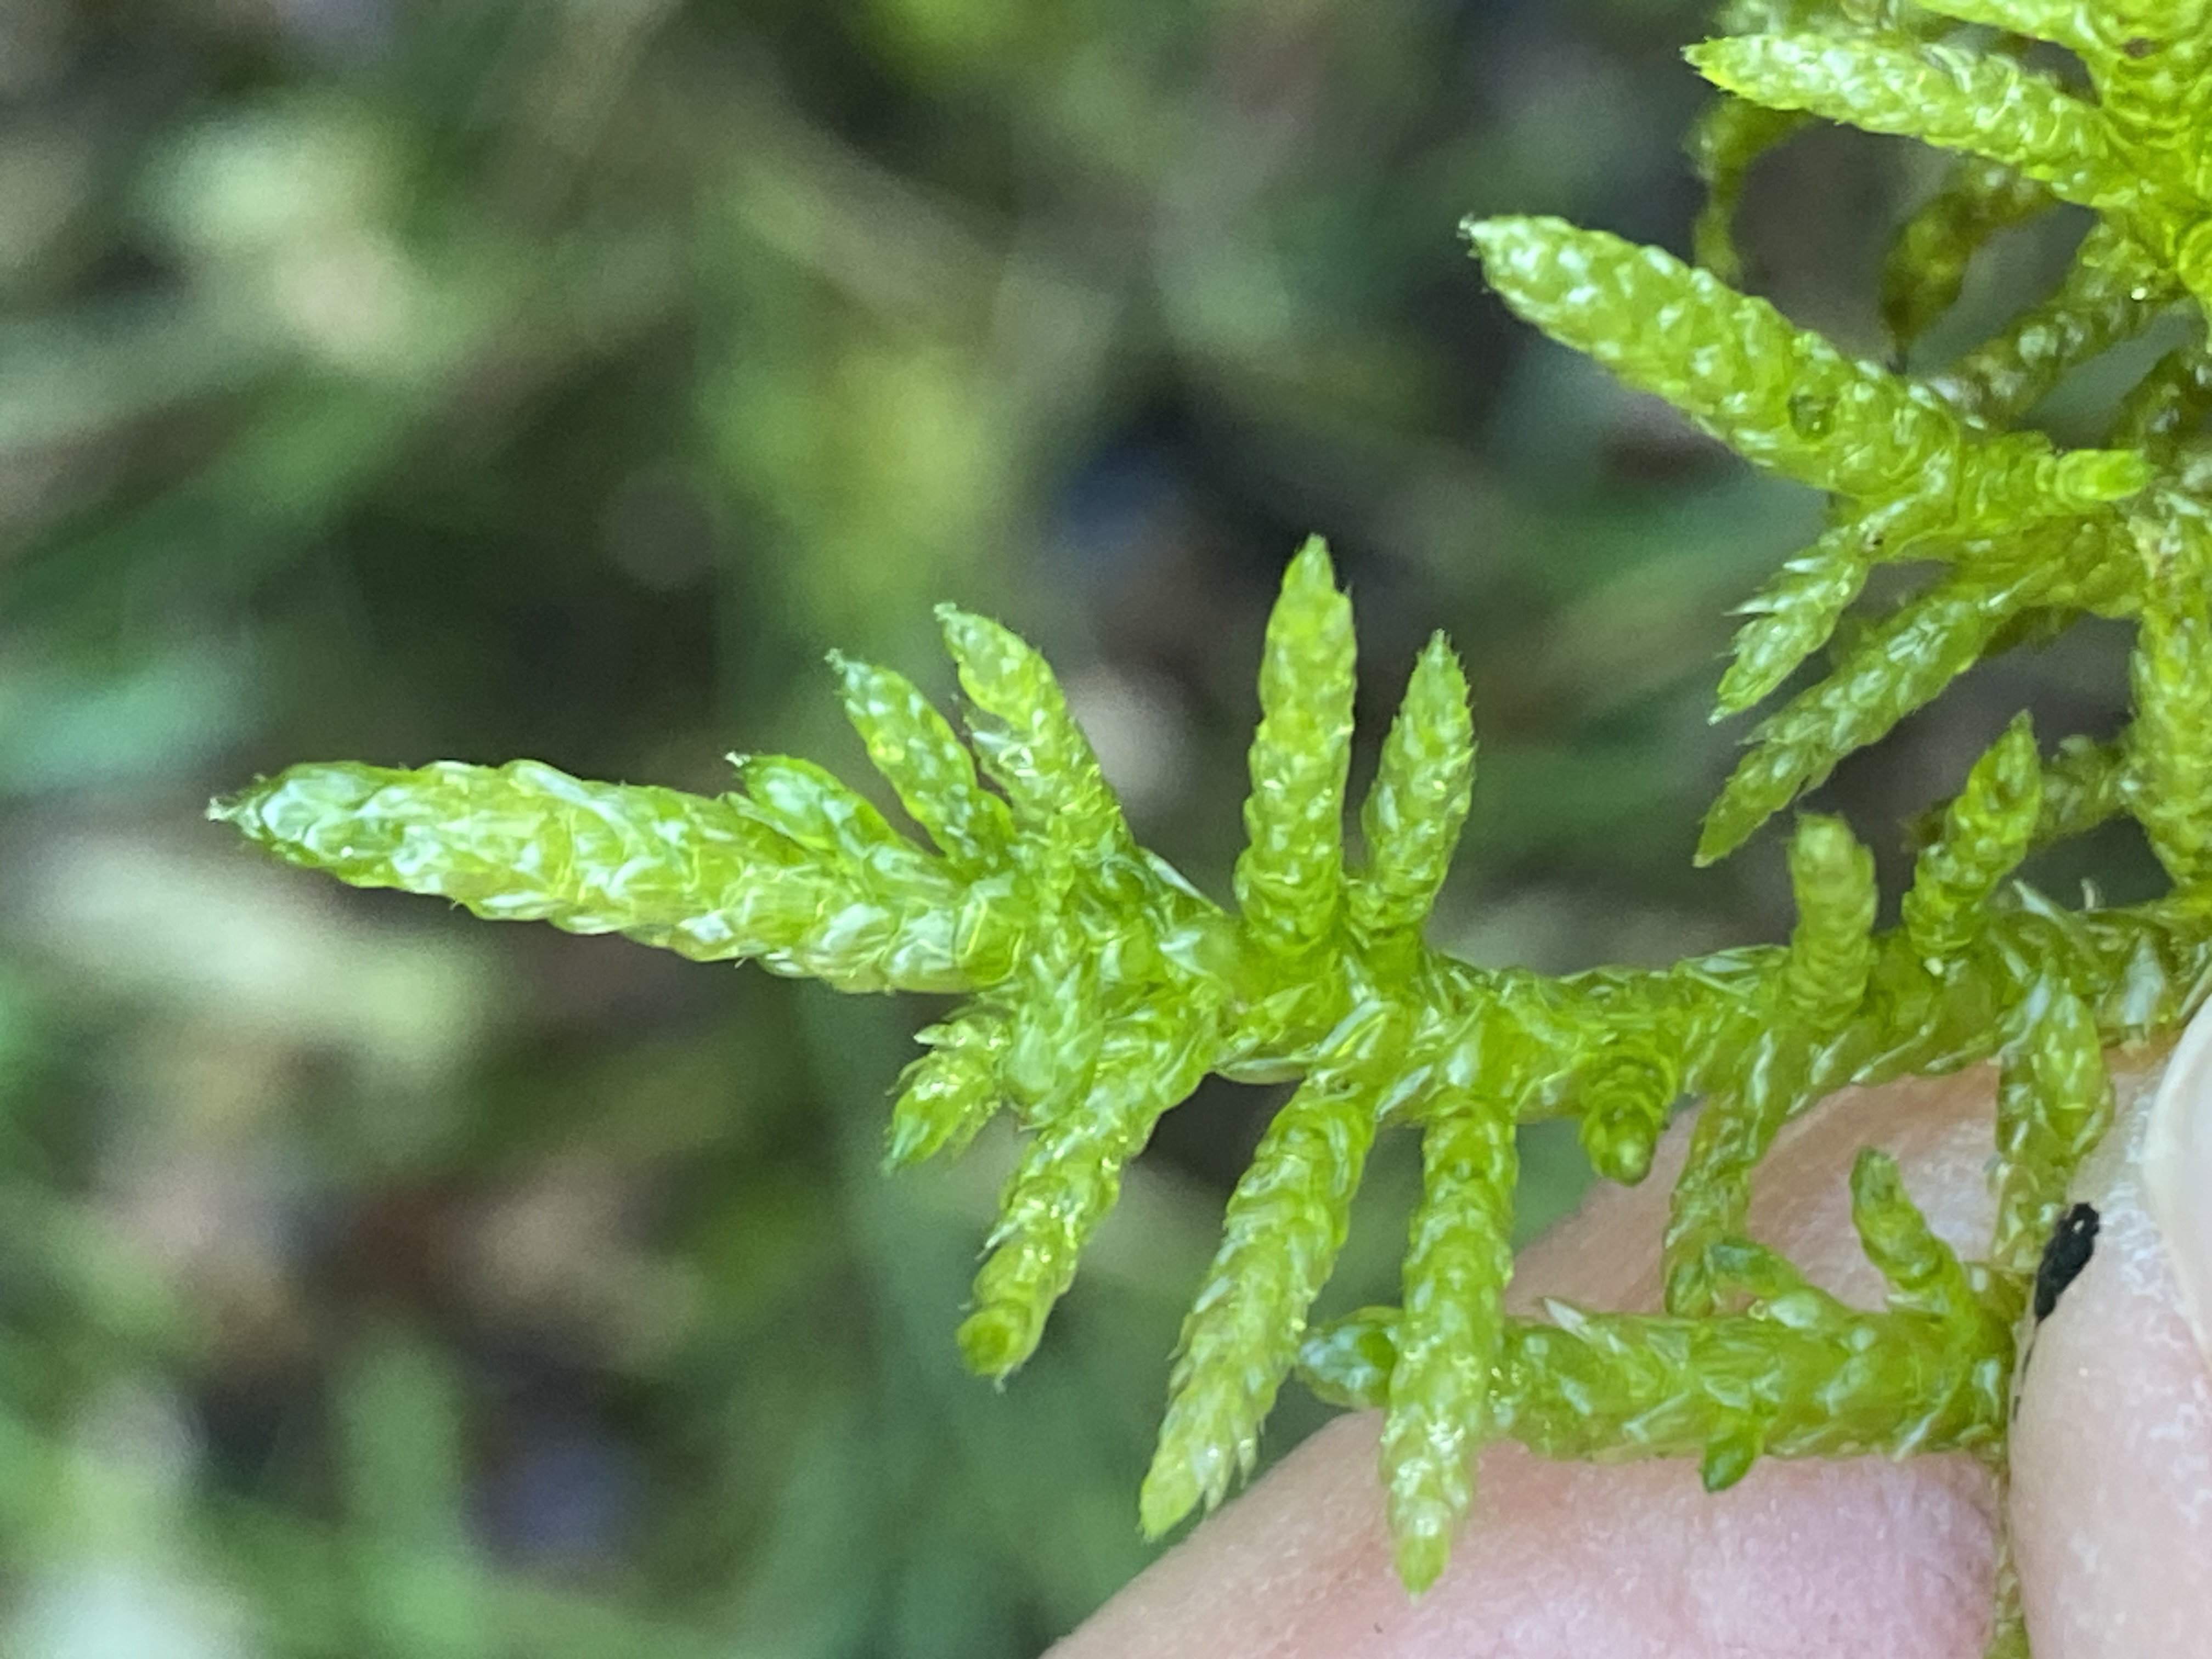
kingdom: Plantae
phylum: Bryophyta
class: Bryopsida
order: Hypnales
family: Brachytheciaceae
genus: Pseudoscleropodium
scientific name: Pseudoscleropodium purum
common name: Hulbladet fedtmos
